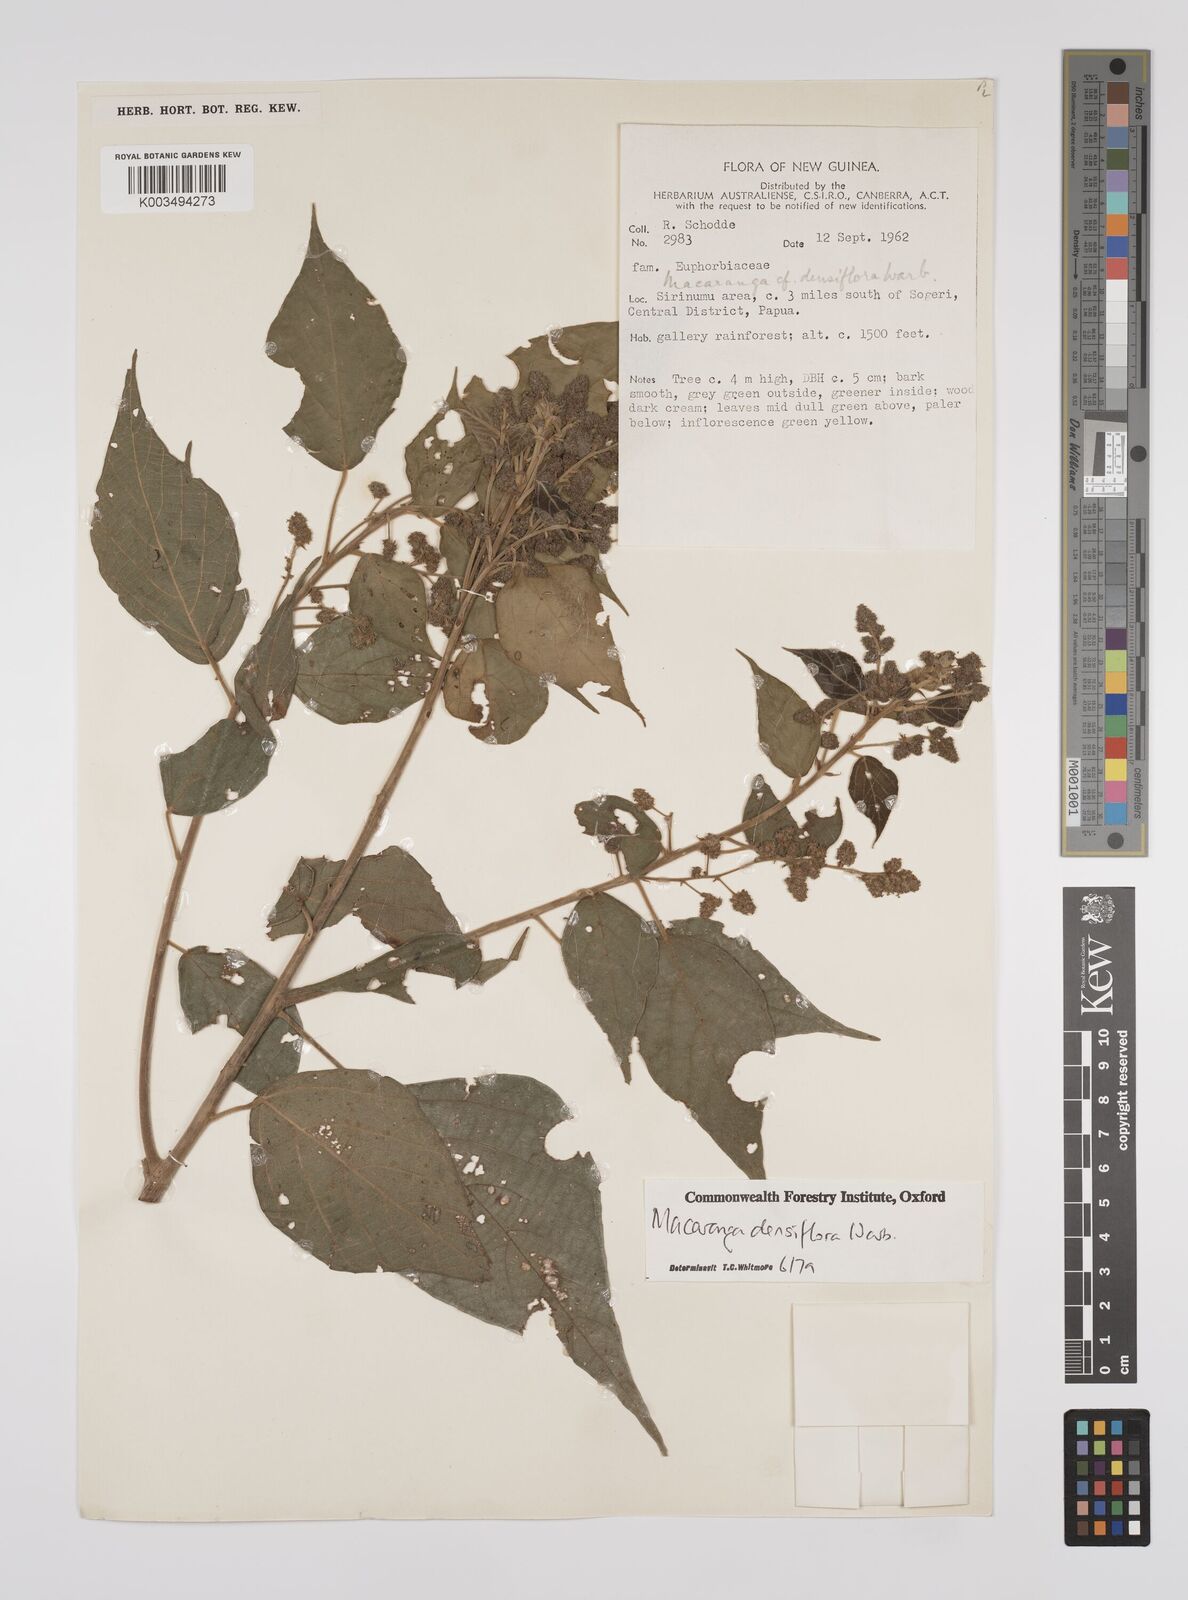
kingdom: Plantae
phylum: Tracheophyta
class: Magnoliopsida
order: Malpighiales
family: Euphorbiaceae
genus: Macaranga
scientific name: Macaranga densiflora
